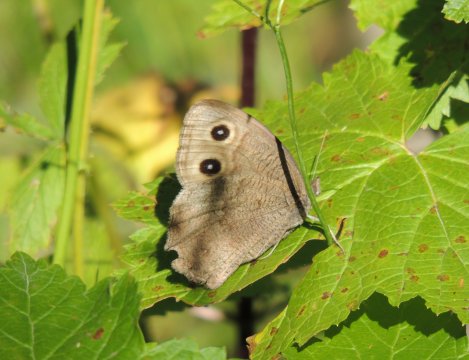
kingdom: Animalia
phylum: Arthropoda
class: Insecta
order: Lepidoptera
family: Nymphalidae
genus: Cercyonis
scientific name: Cercyonis pegala
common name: Common Wood-Nymph
